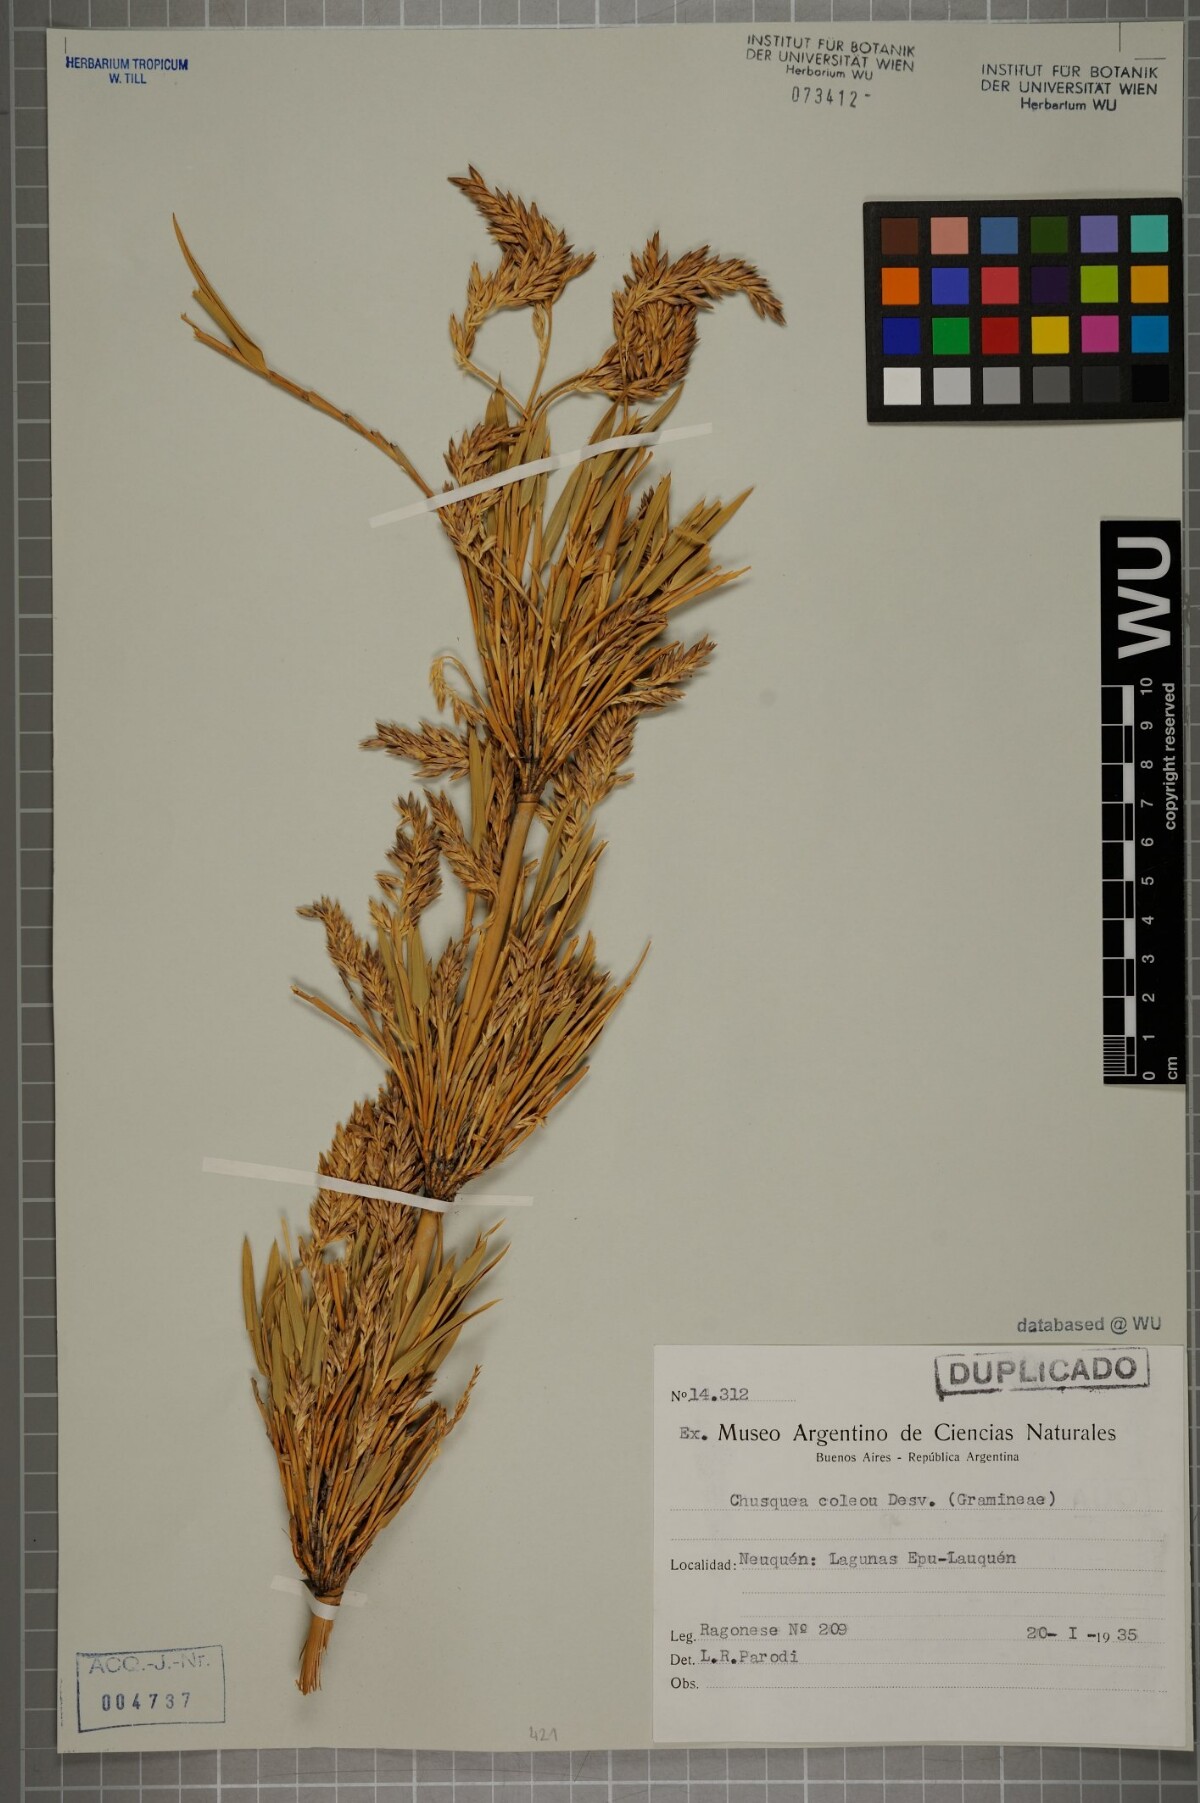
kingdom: Plantae
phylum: Tracheophyta
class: Liliopsida
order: Poales
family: Poaceae
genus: Chusquea
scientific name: Chusquea culeou
